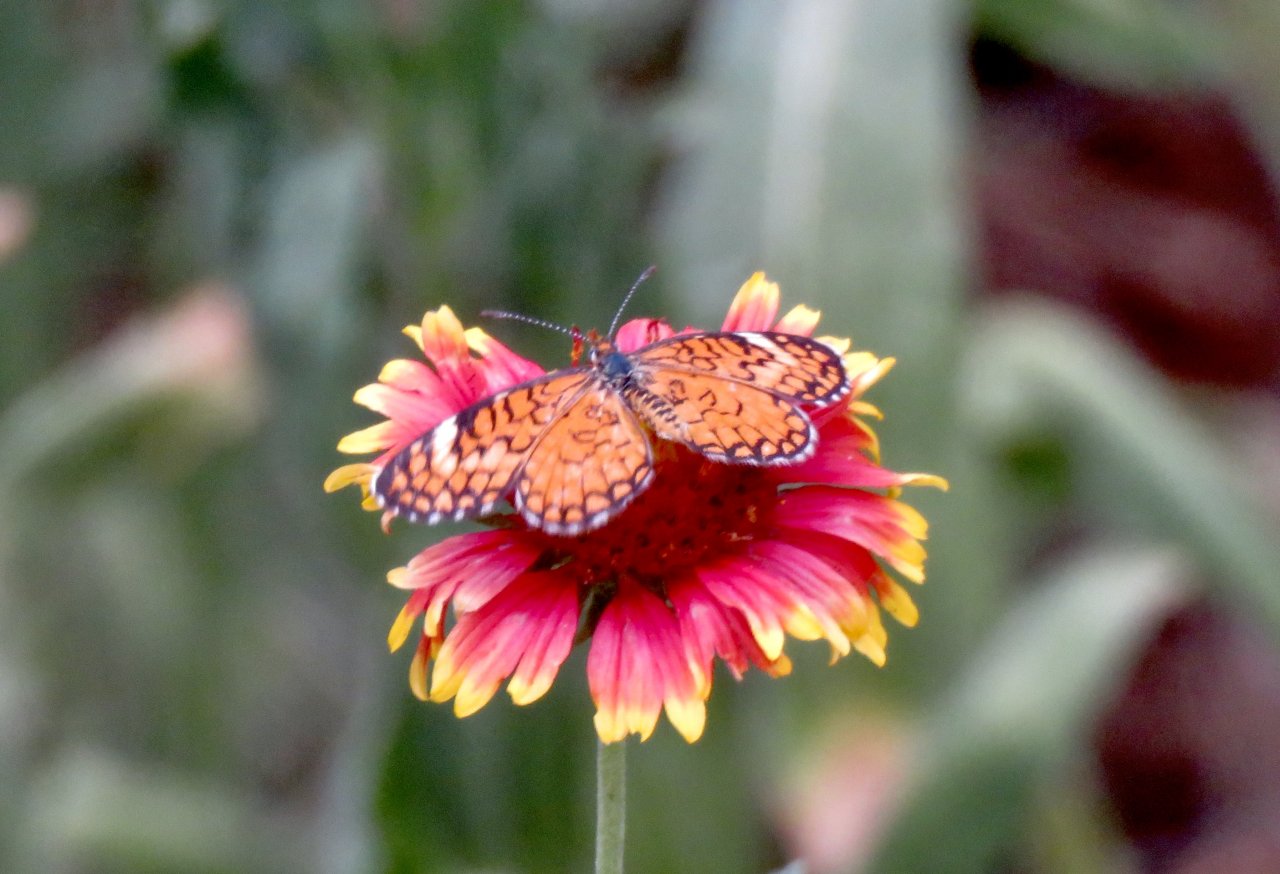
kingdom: Animalia
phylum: Arthropoda
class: Insecta
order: Lepidoptera
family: Nymphalidae
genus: Texola
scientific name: Texola
